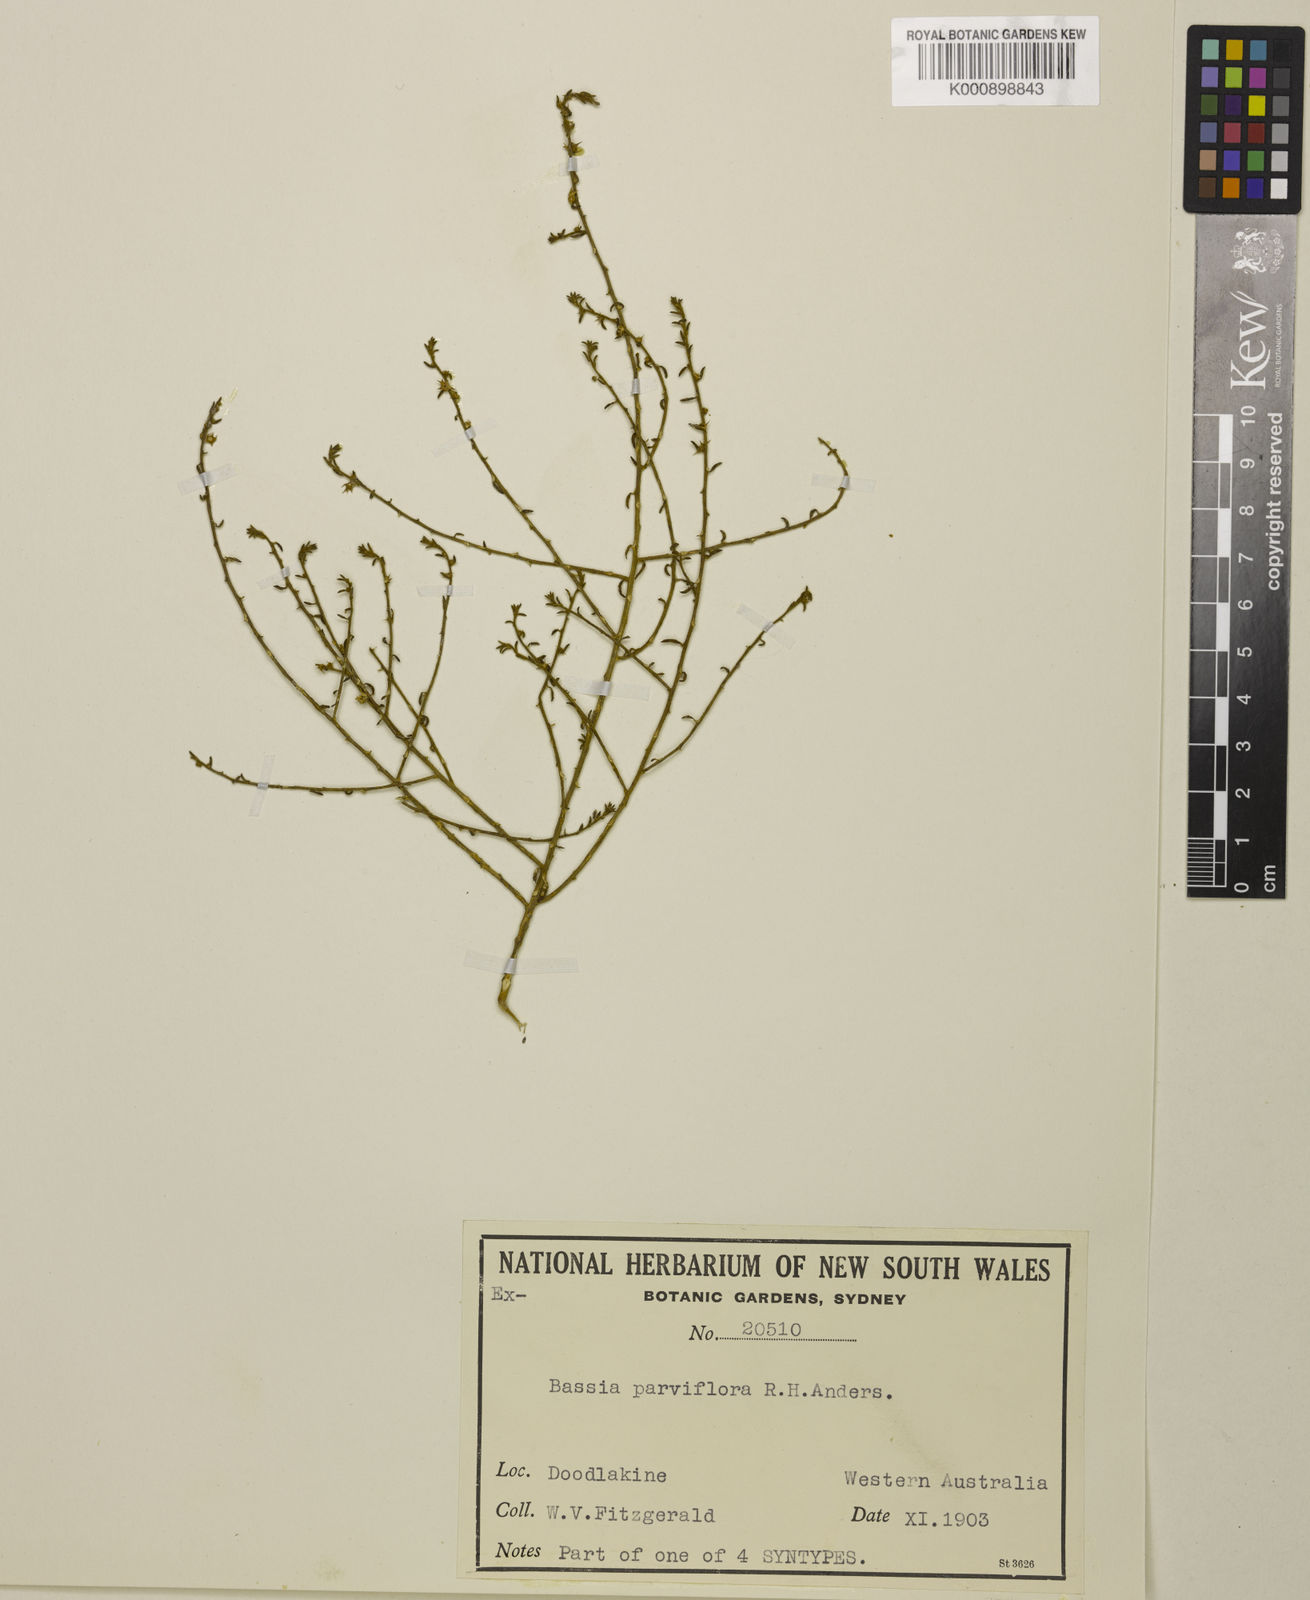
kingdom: Plantae
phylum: Tracheophyta
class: Magnoliopsida
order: Caryophyllales
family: Amaranthaceae
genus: Sclerolaena
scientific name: Sclerolaena parviflora
